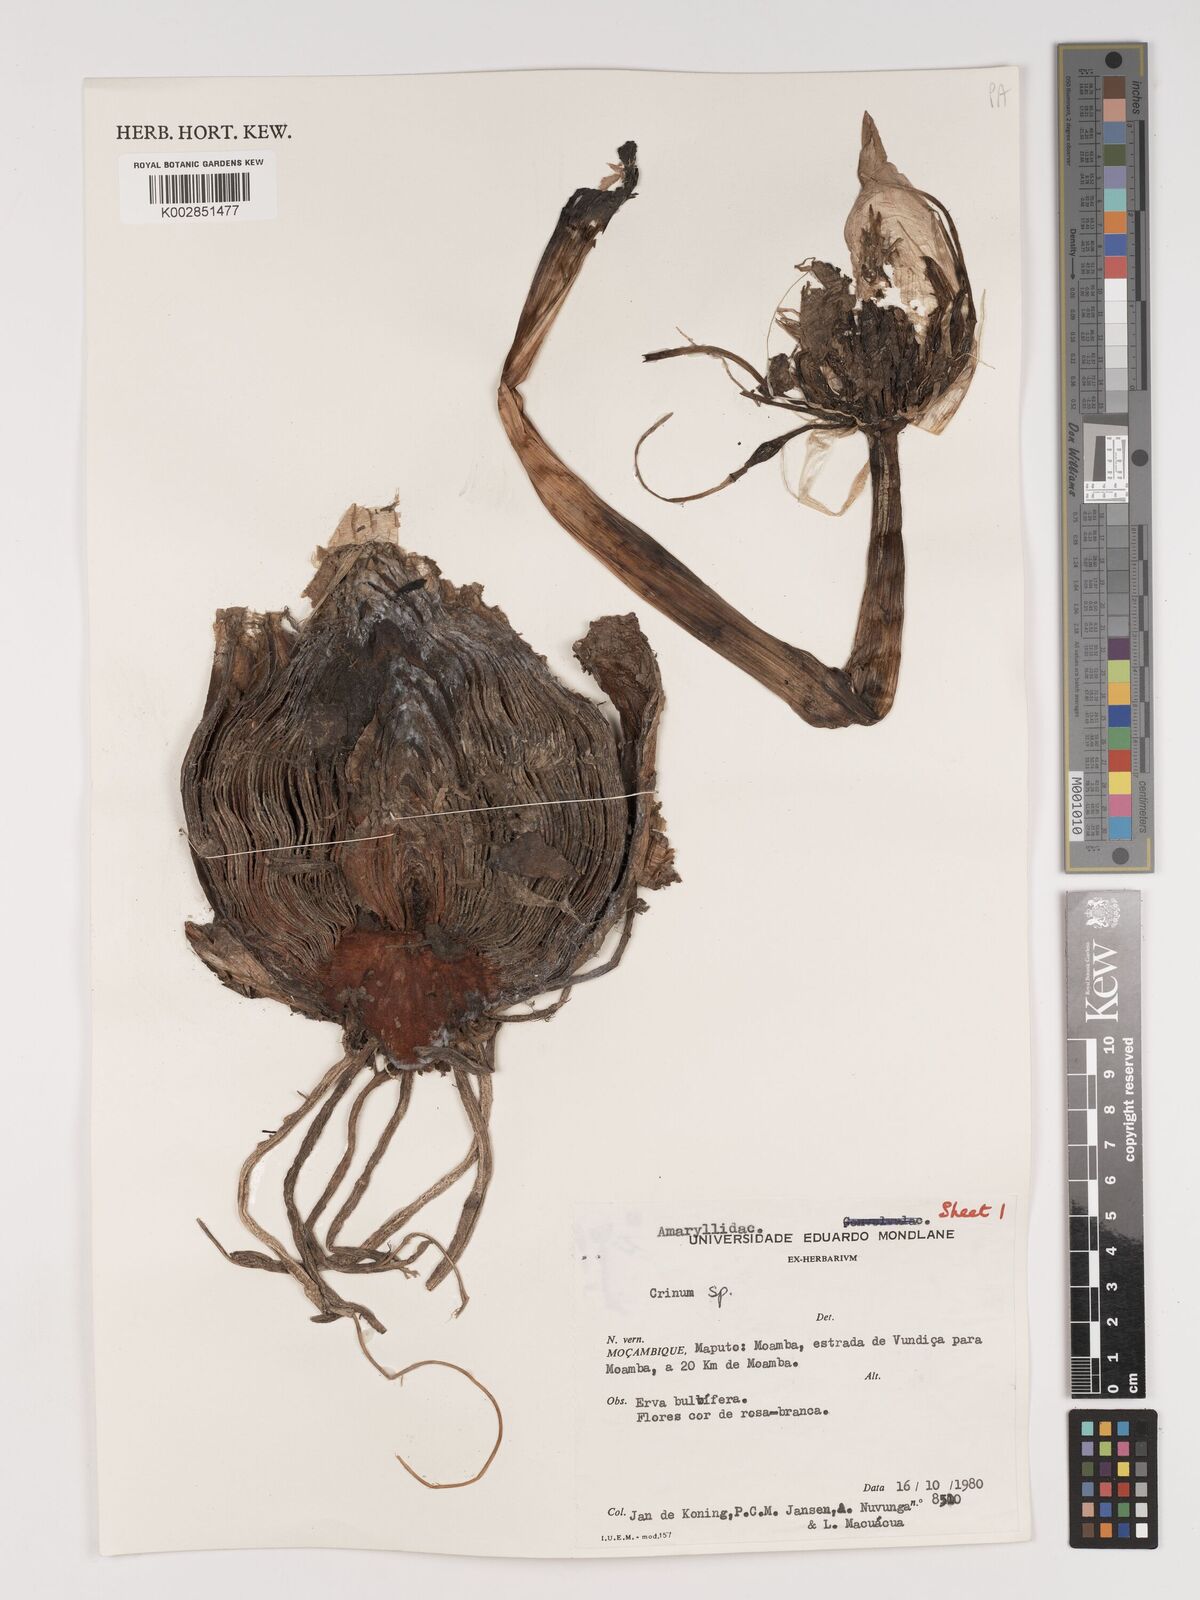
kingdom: Plantae
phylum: Tracheophyta
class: Liliopsida
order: Asparagales
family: Amaryllidaceae
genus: Crinum
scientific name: Crinum stuhlmannii
